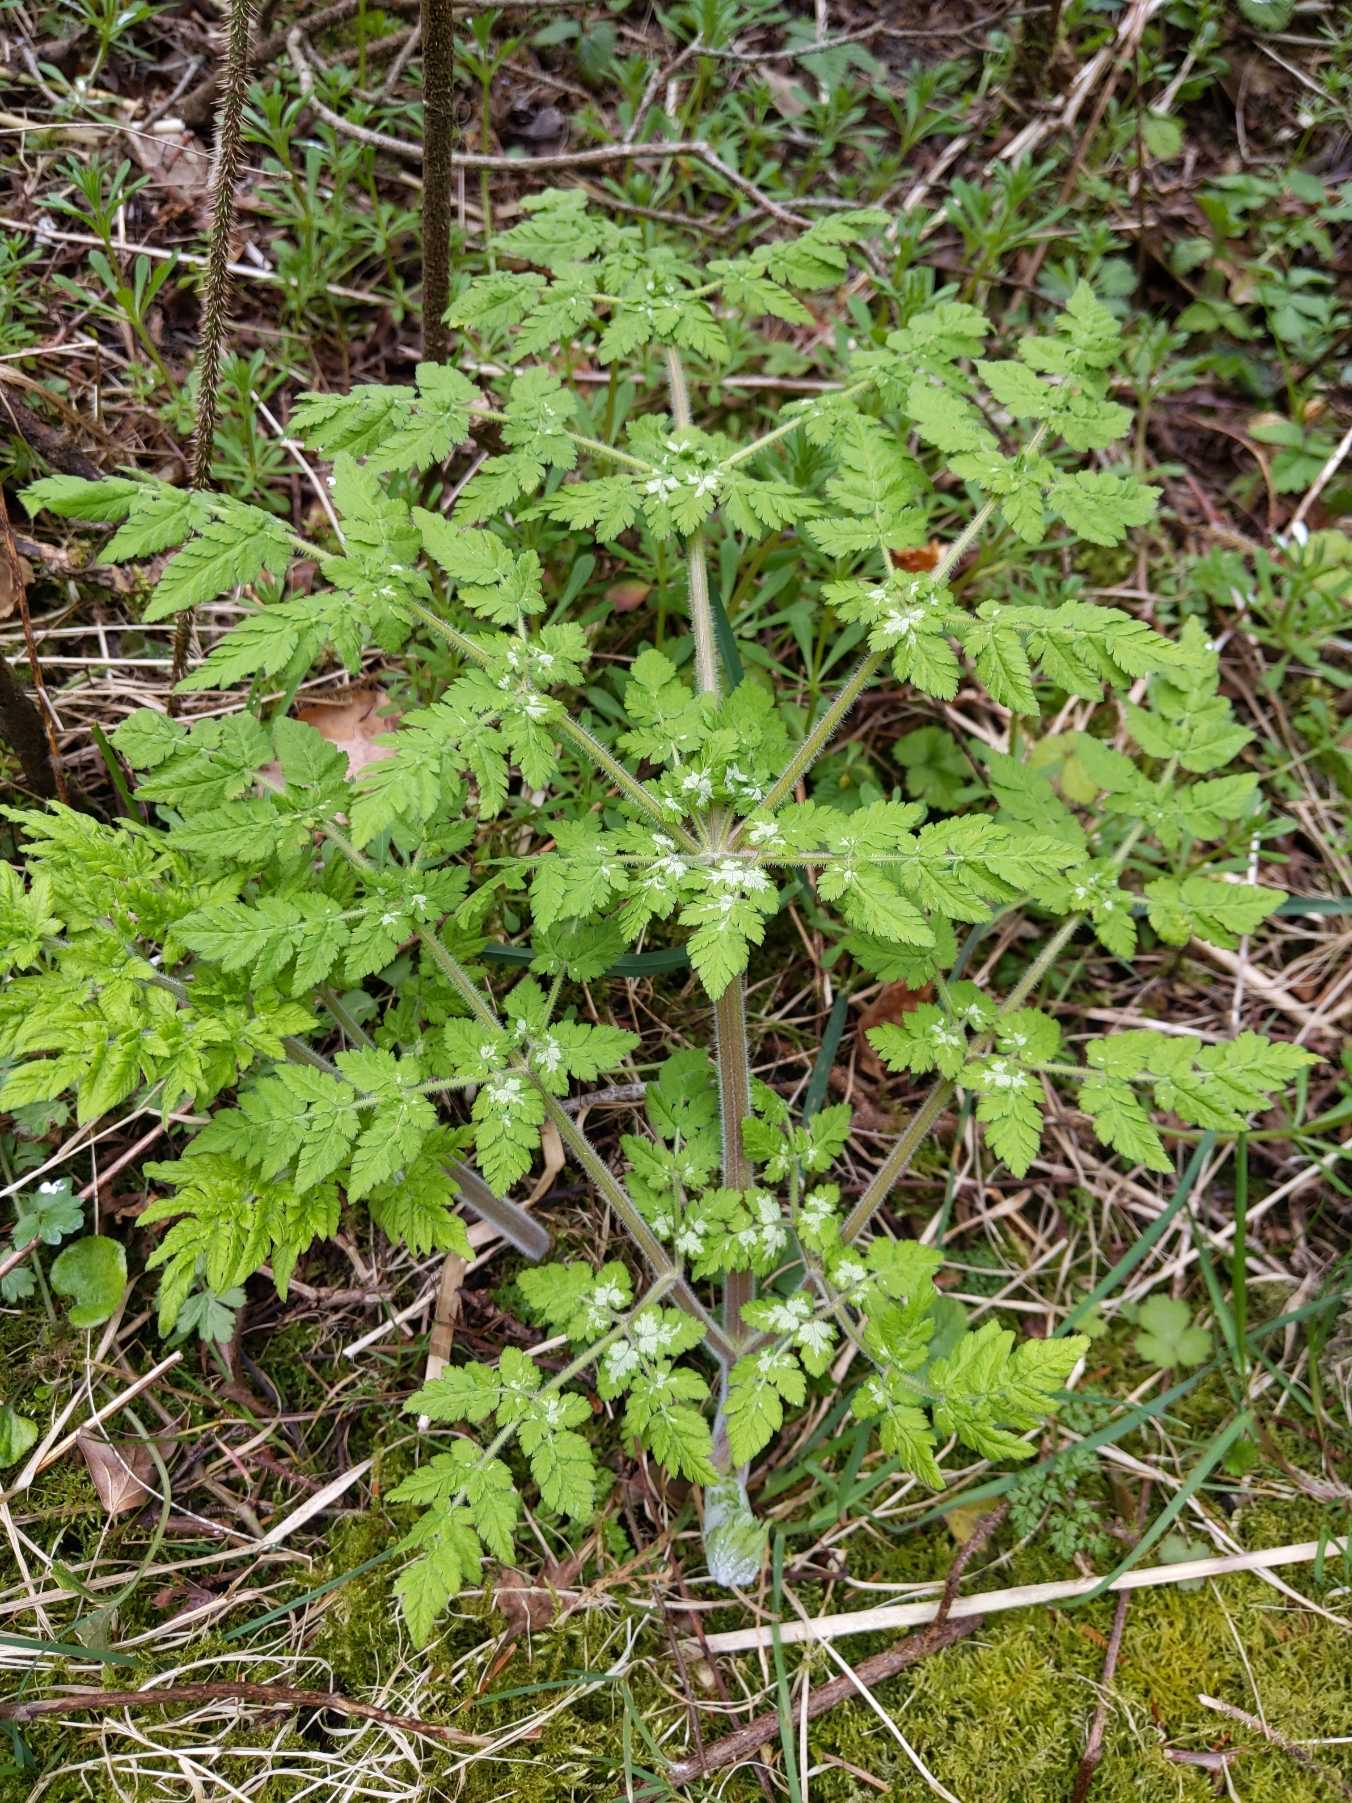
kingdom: Plantae
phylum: Tracheophyta
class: Magnoliopsida
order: Apiales
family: Apiaceae
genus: Myrrhis
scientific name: Myrrhis odorata
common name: Sødskærm
